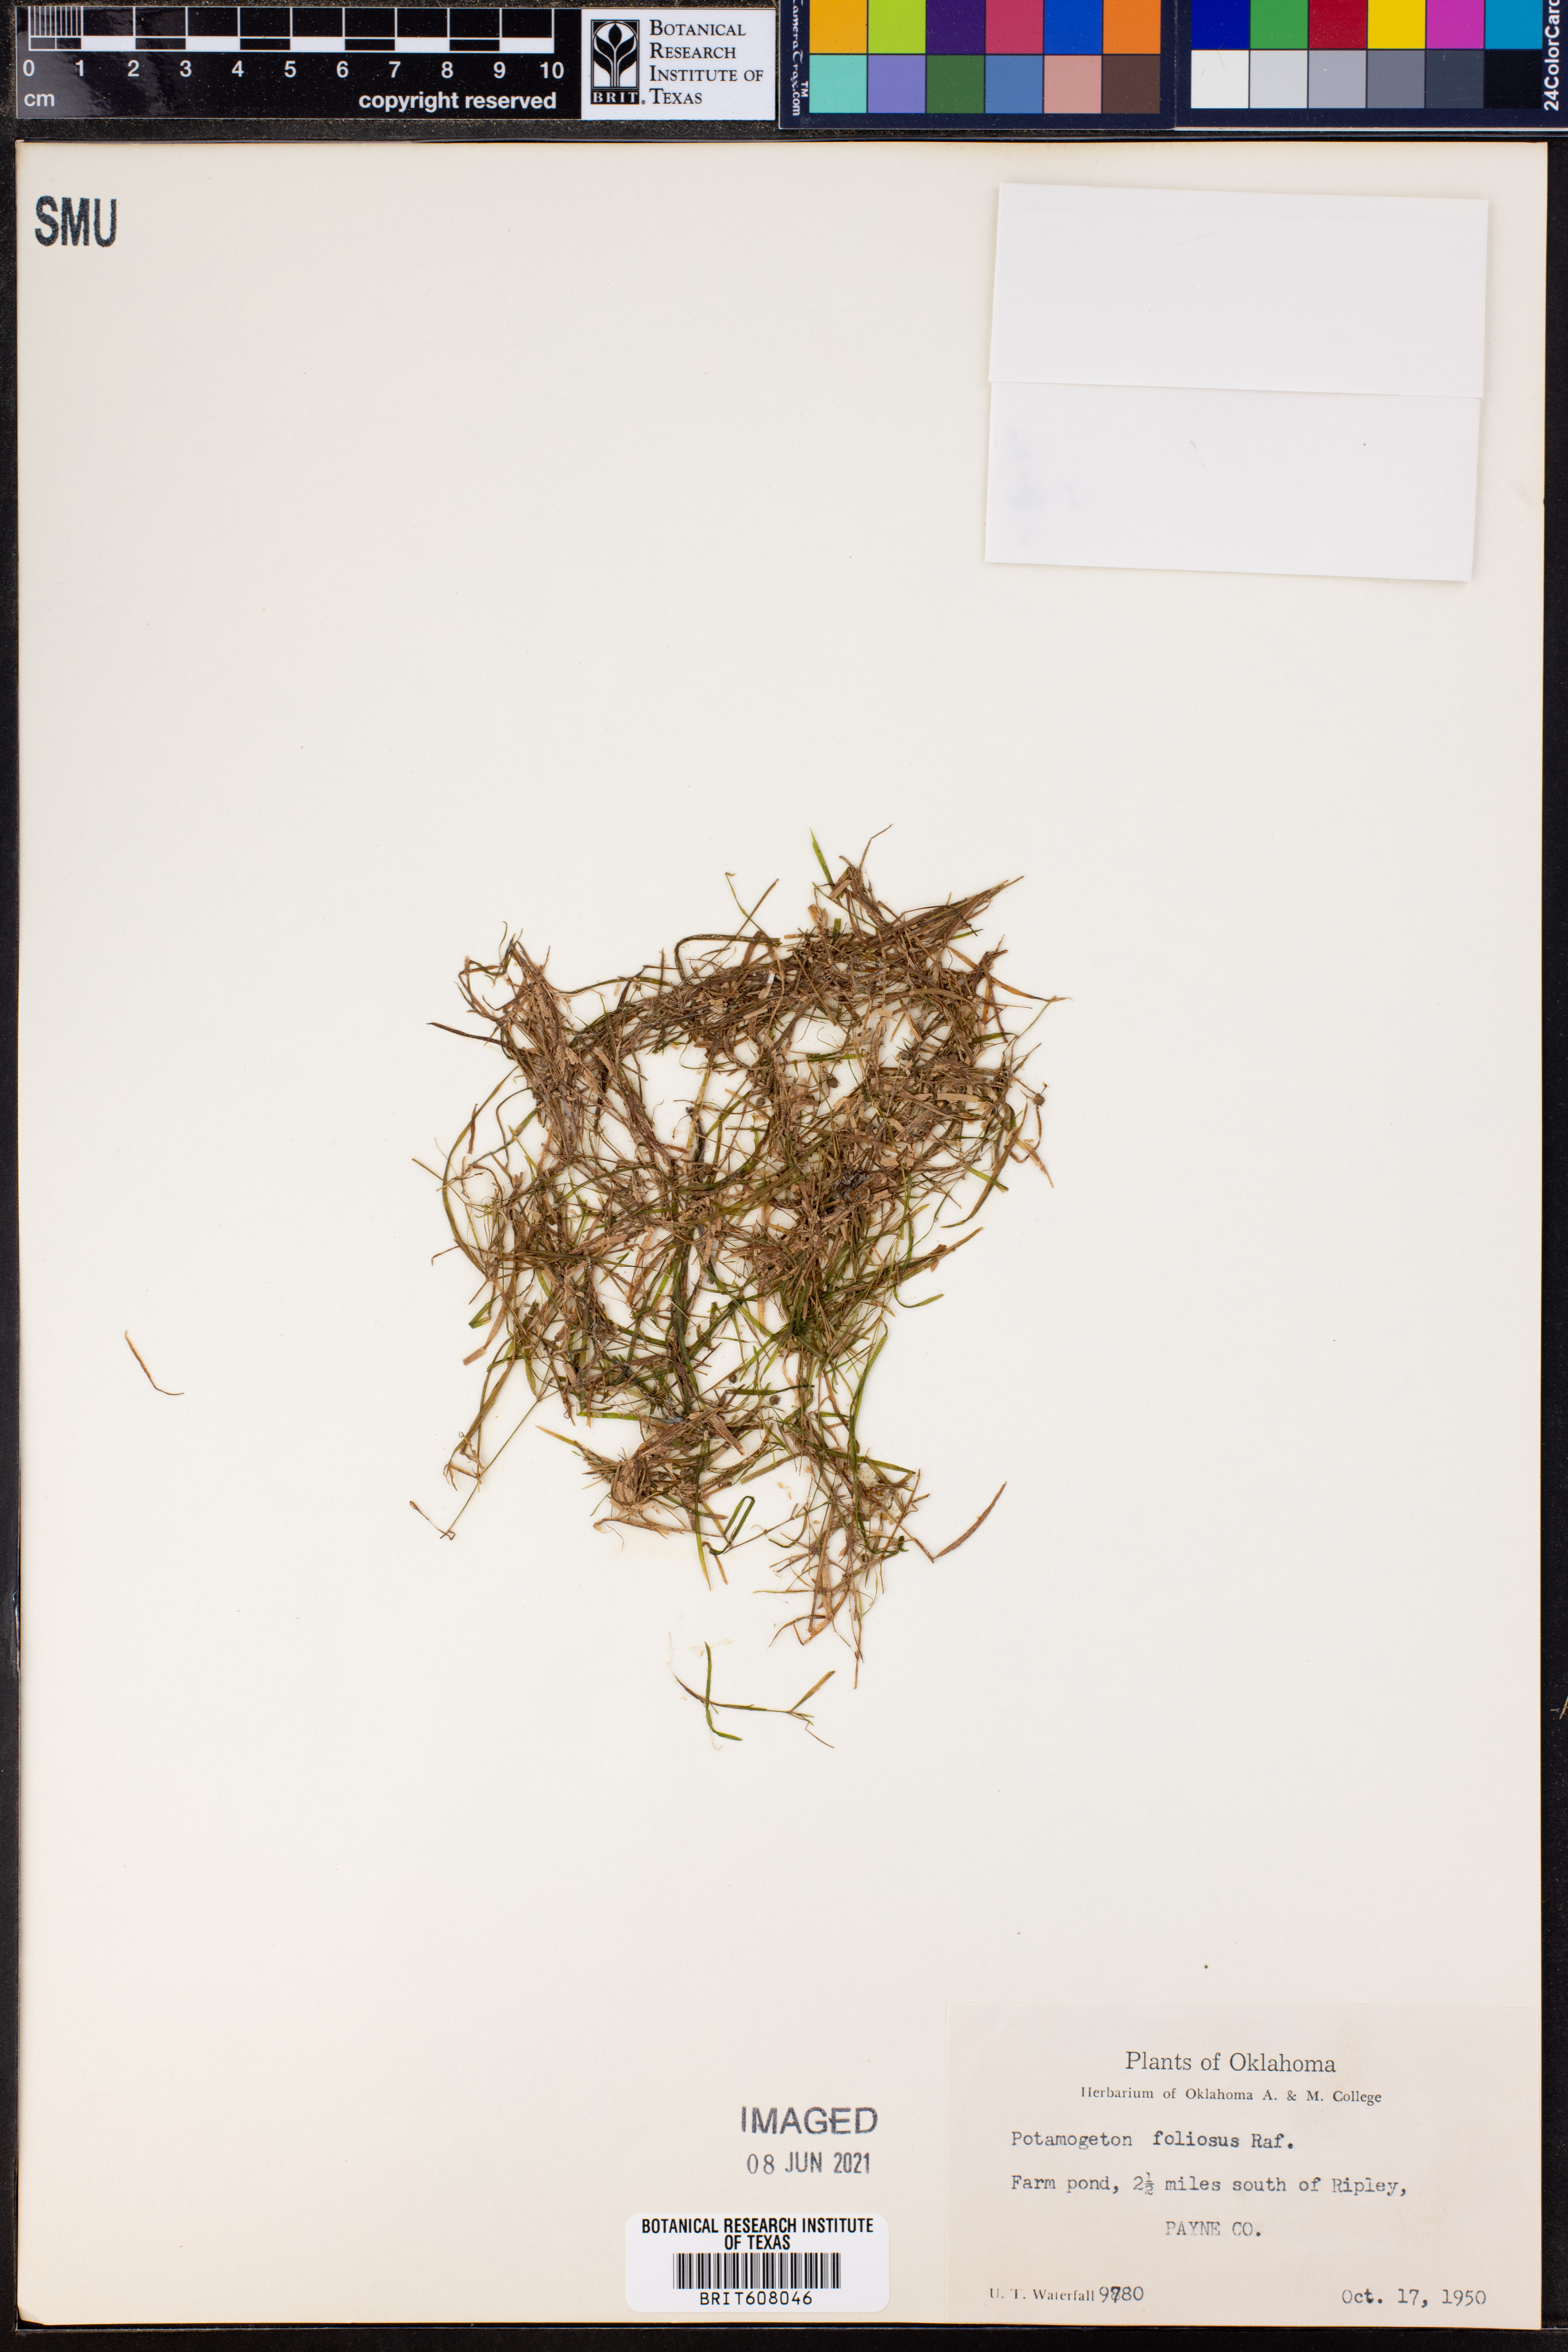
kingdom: Plantae
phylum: Tracheophyta
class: Liliopsida
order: Alismatales
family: Potamogetonaceae
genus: Potamogeton
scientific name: Potamogeton foliosus
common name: Leafy pondweed
